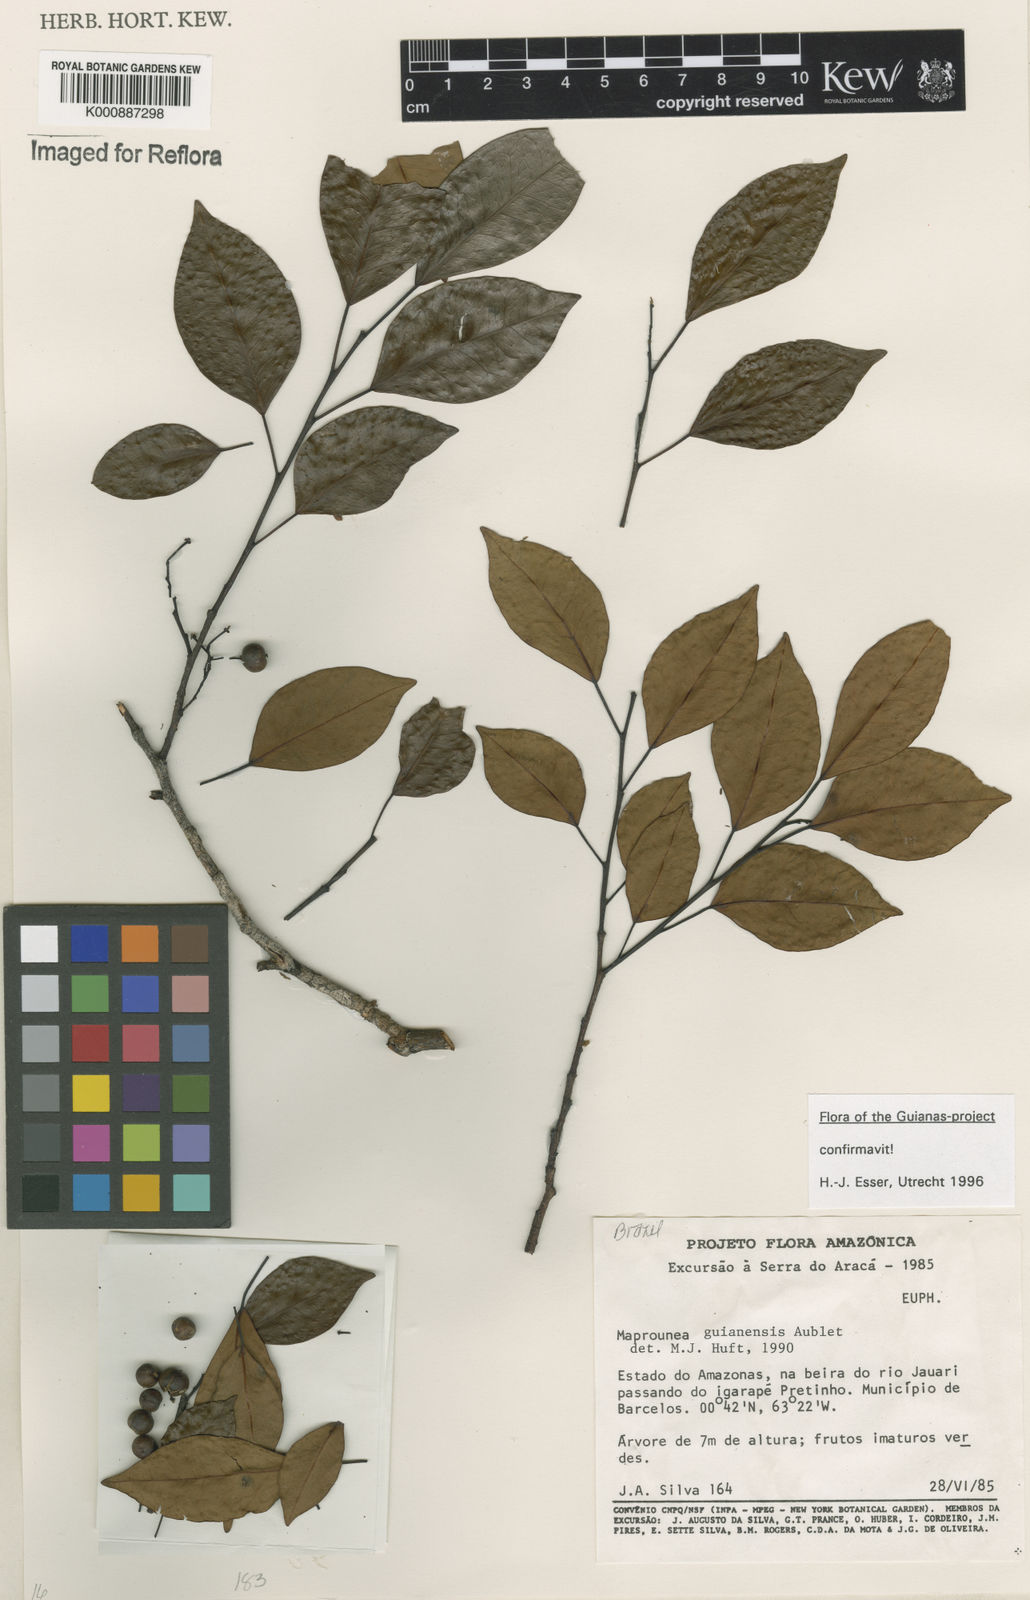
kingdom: Plantae
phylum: Tracheophyta
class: Magnoliopsida
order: Malpighiales
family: Euphorbiaceae
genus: Maprounea
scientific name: Maprounea guianensis
